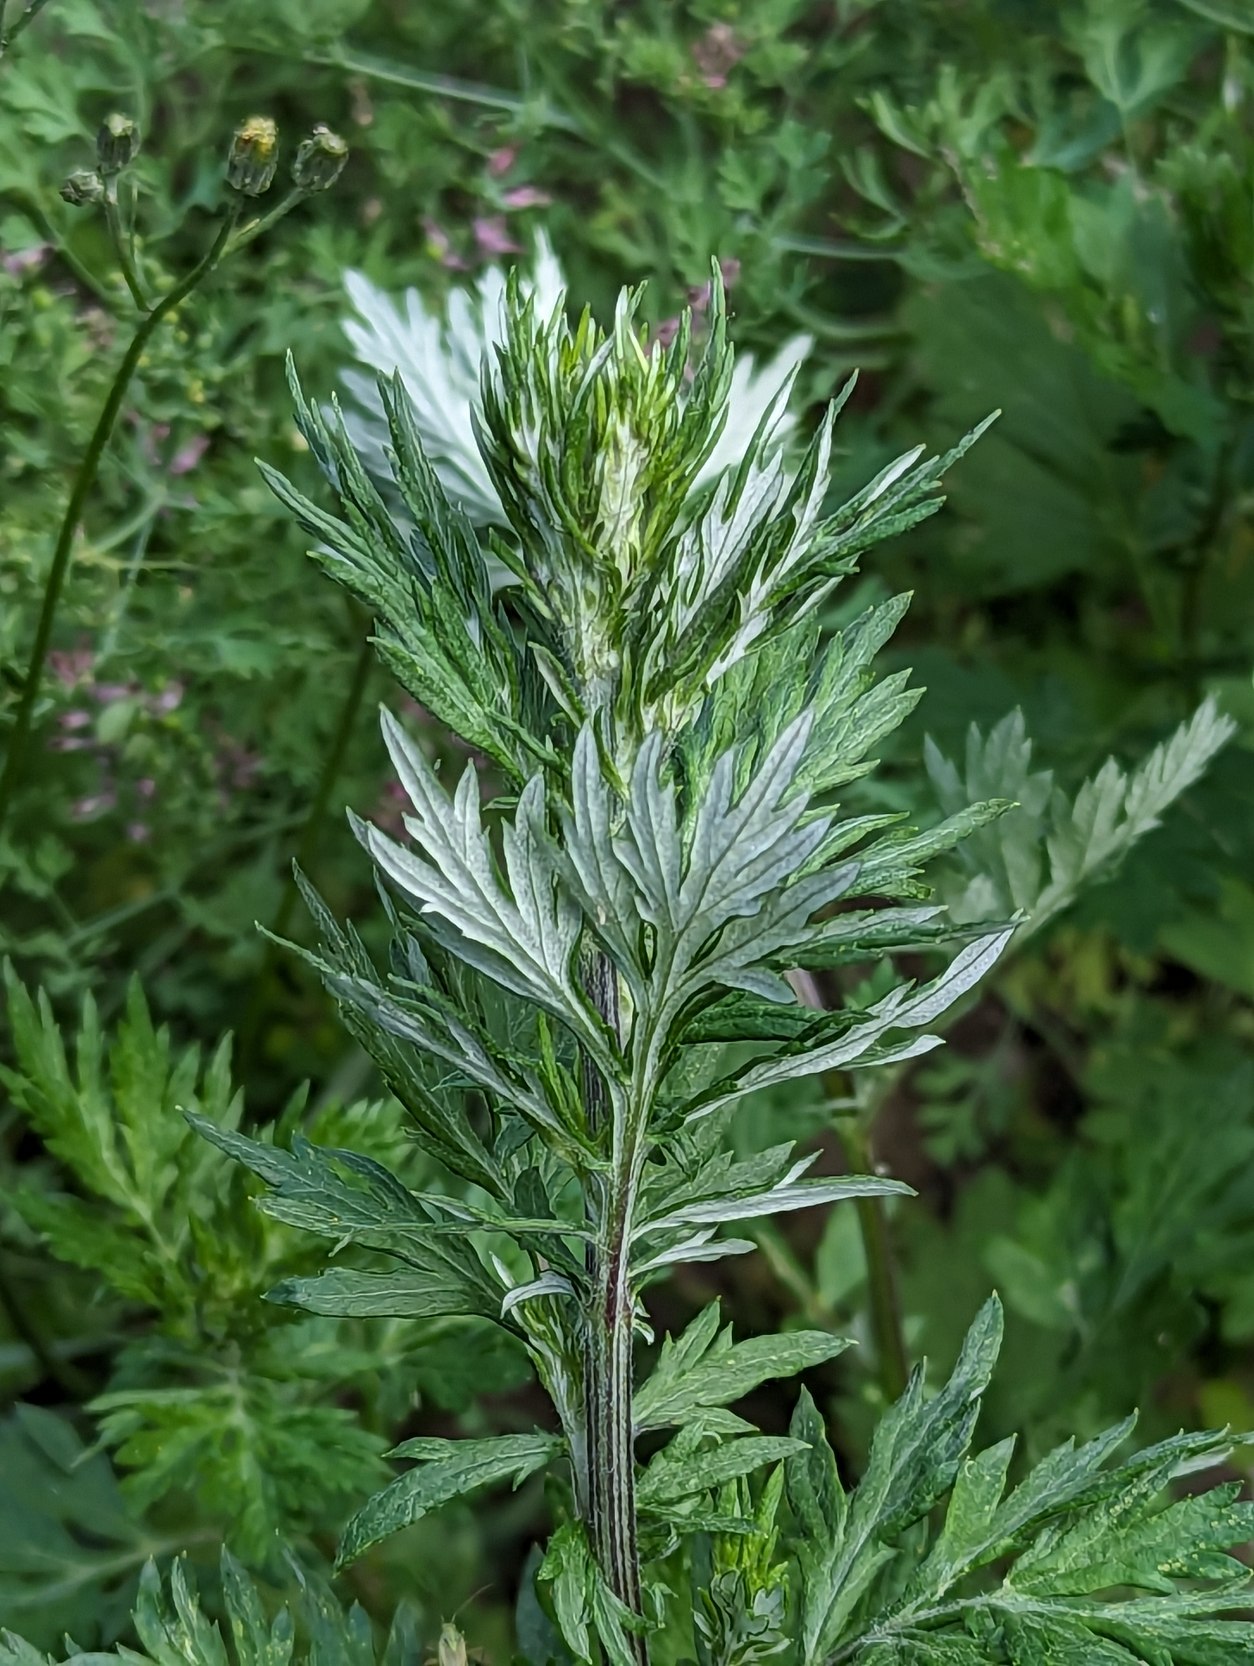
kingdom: Plantae
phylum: Tracheophyta
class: Magnoliopsida
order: Asterales
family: Asteraceae
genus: Artemisia
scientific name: Artemisia vulgaris
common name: Grå-bynke
